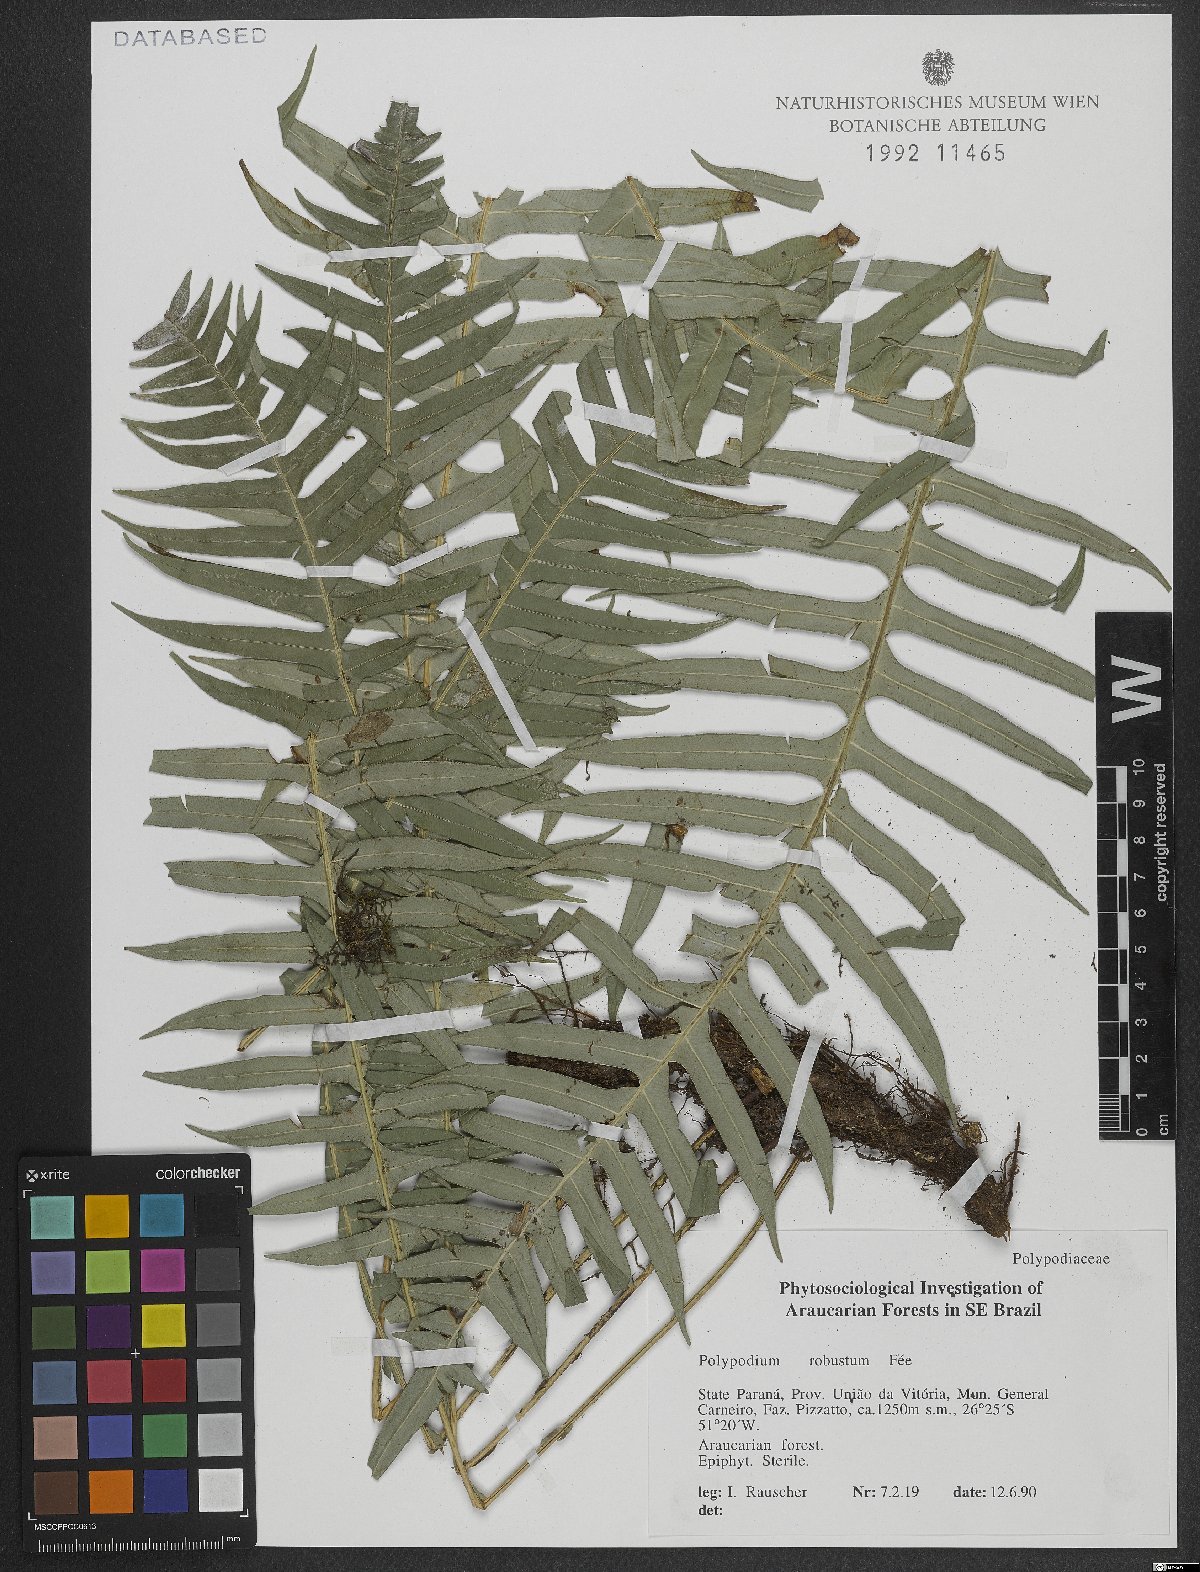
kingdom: Plantae
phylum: Tracheophyta
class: Polypodiopsida
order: Polypodiales
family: Polypodiaceae
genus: Pecluma
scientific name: Pecluma robusta
